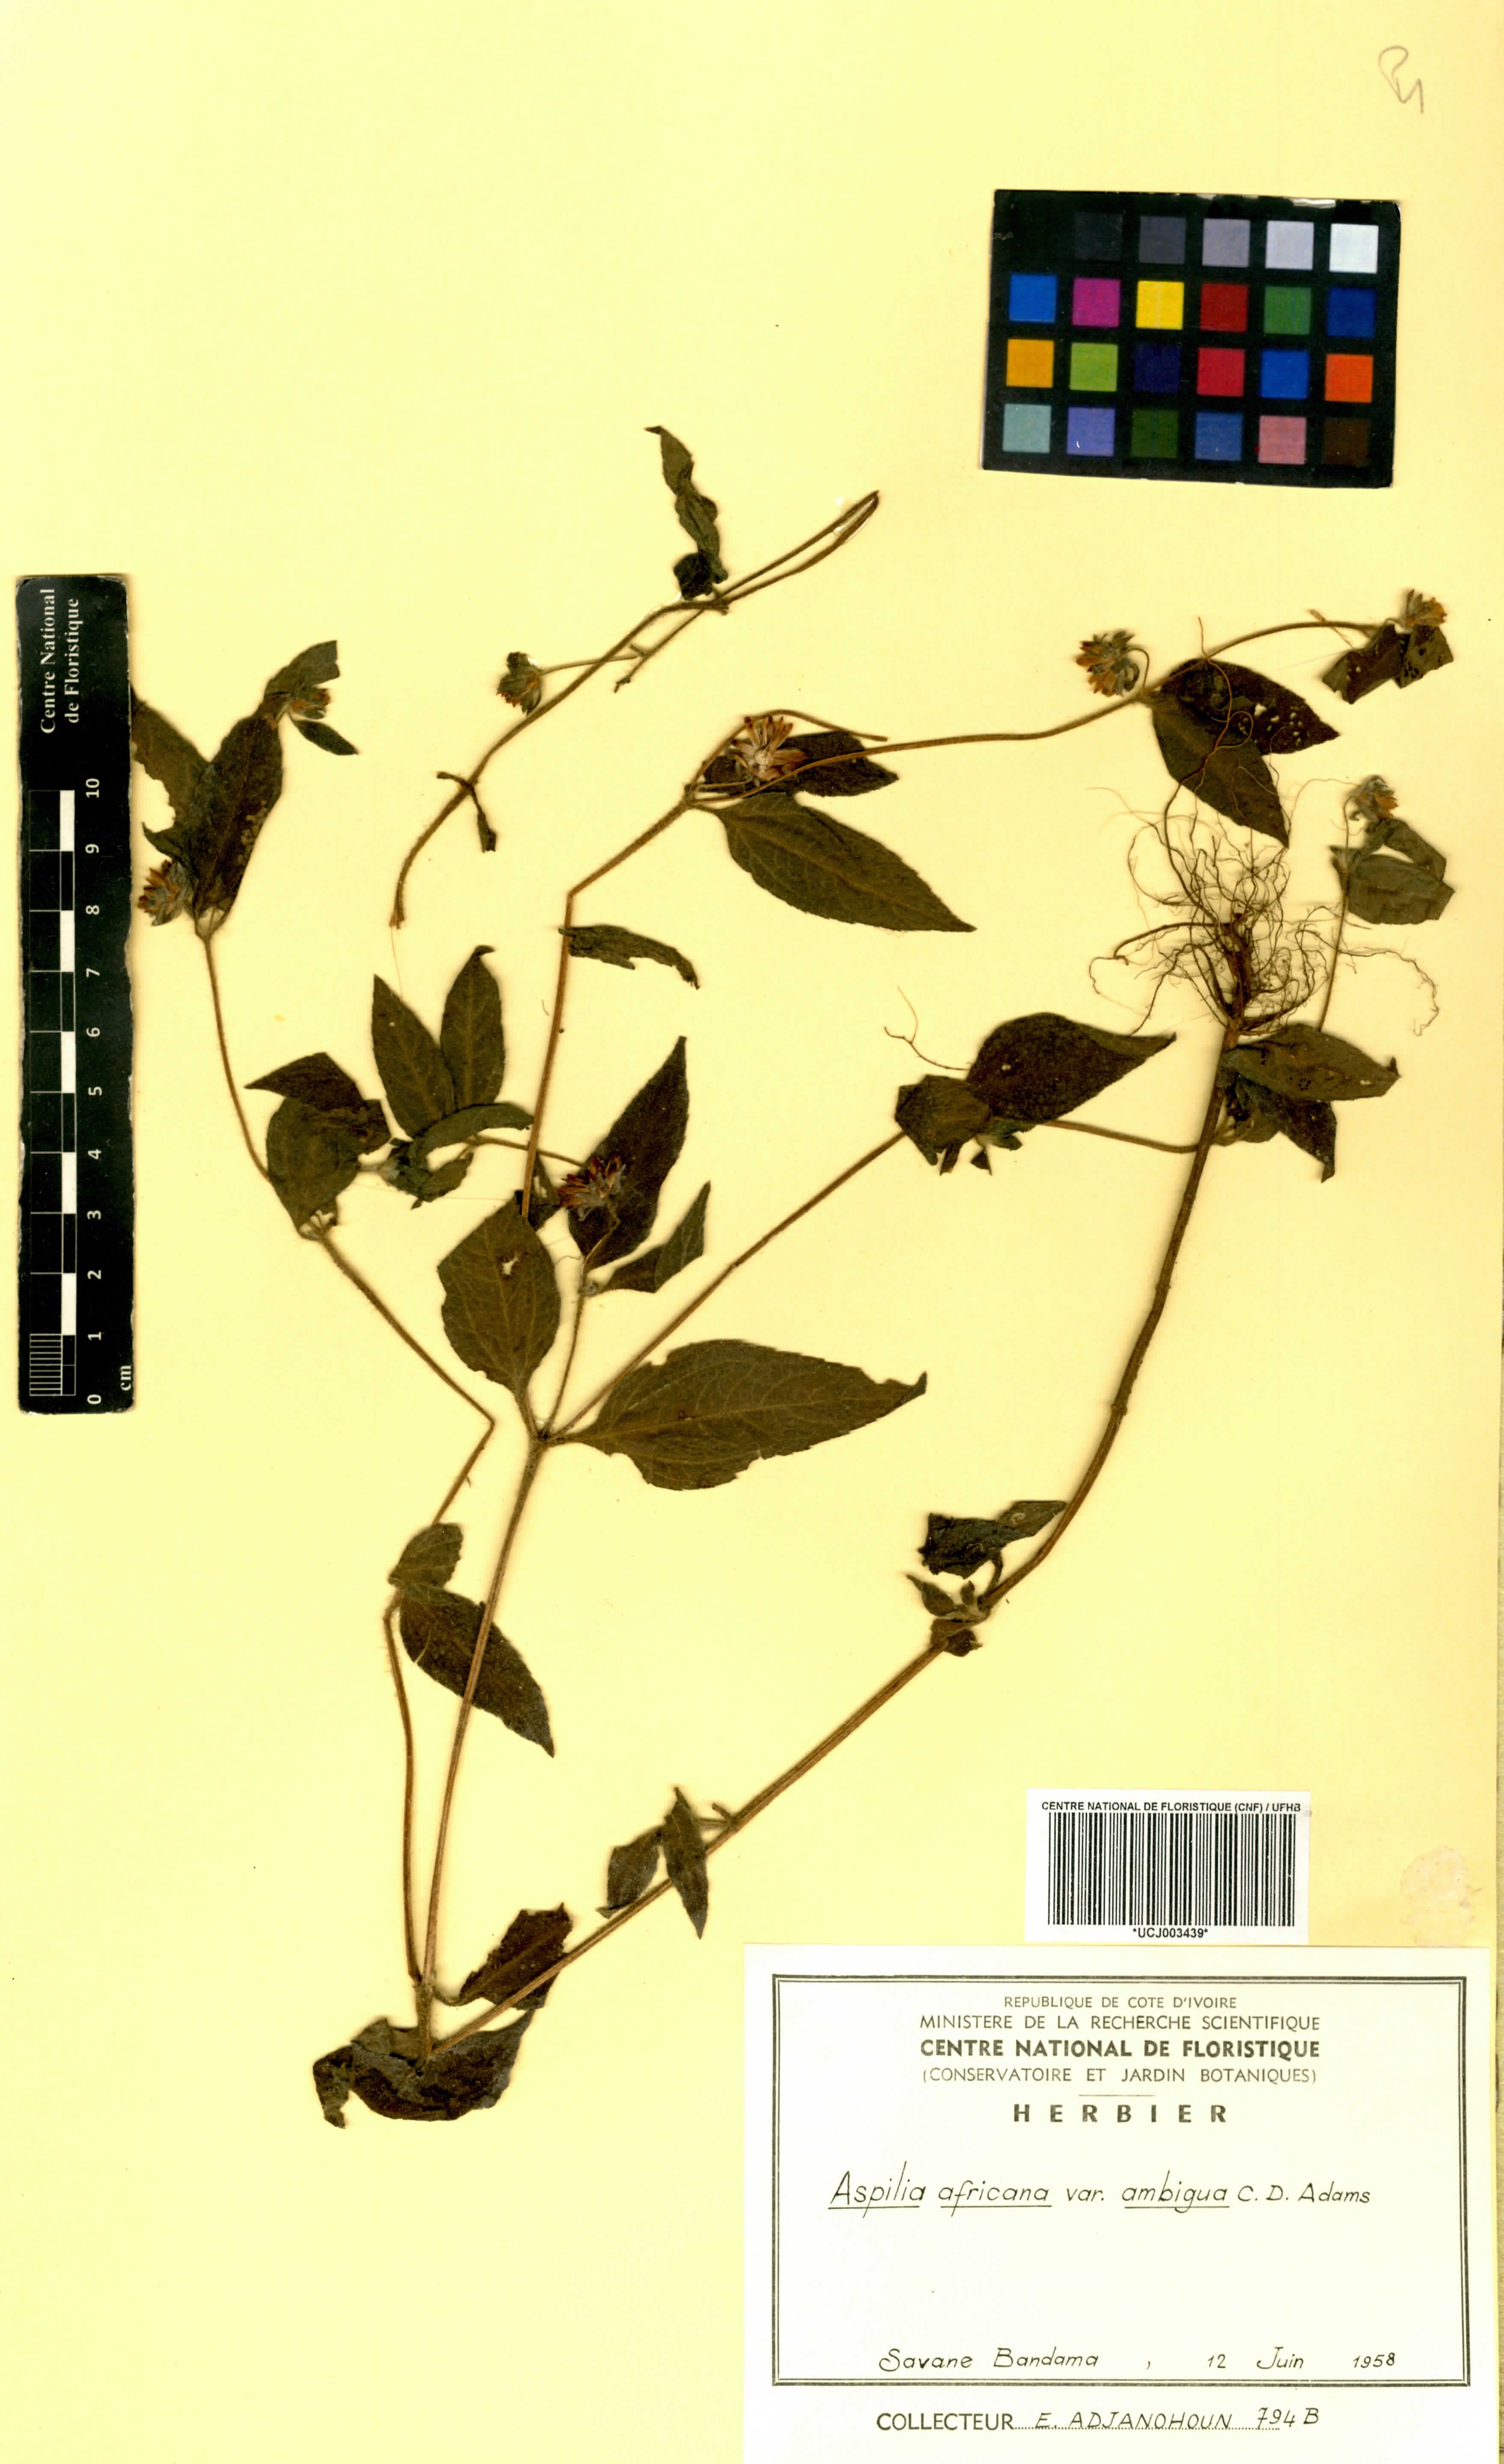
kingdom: Plantae
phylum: Tracheophyta
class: Magnoliopsida
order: Asterales
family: Asteraceae
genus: Aspilia
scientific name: Aspilia africana
